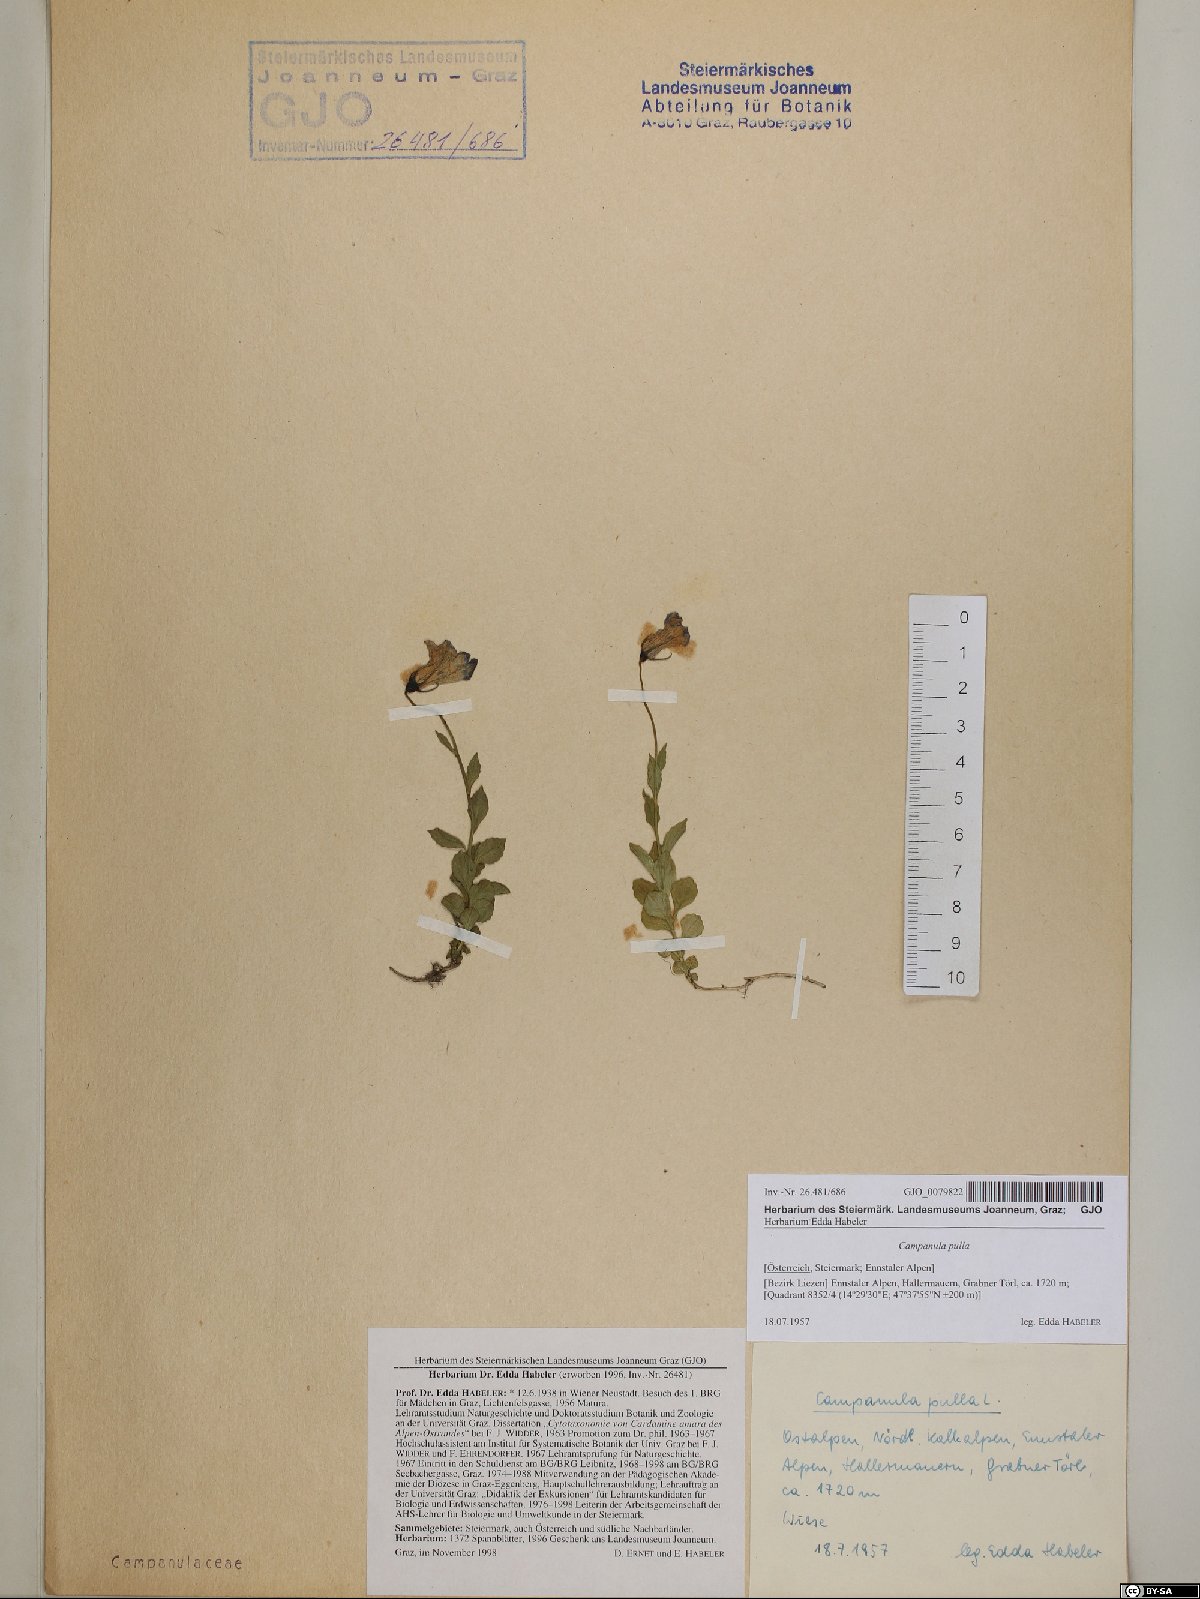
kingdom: Plantae
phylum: Tracheophyta
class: Magnoliopsida
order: Asterales
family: Campanulaceae
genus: Campanula
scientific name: Campanula pulla
